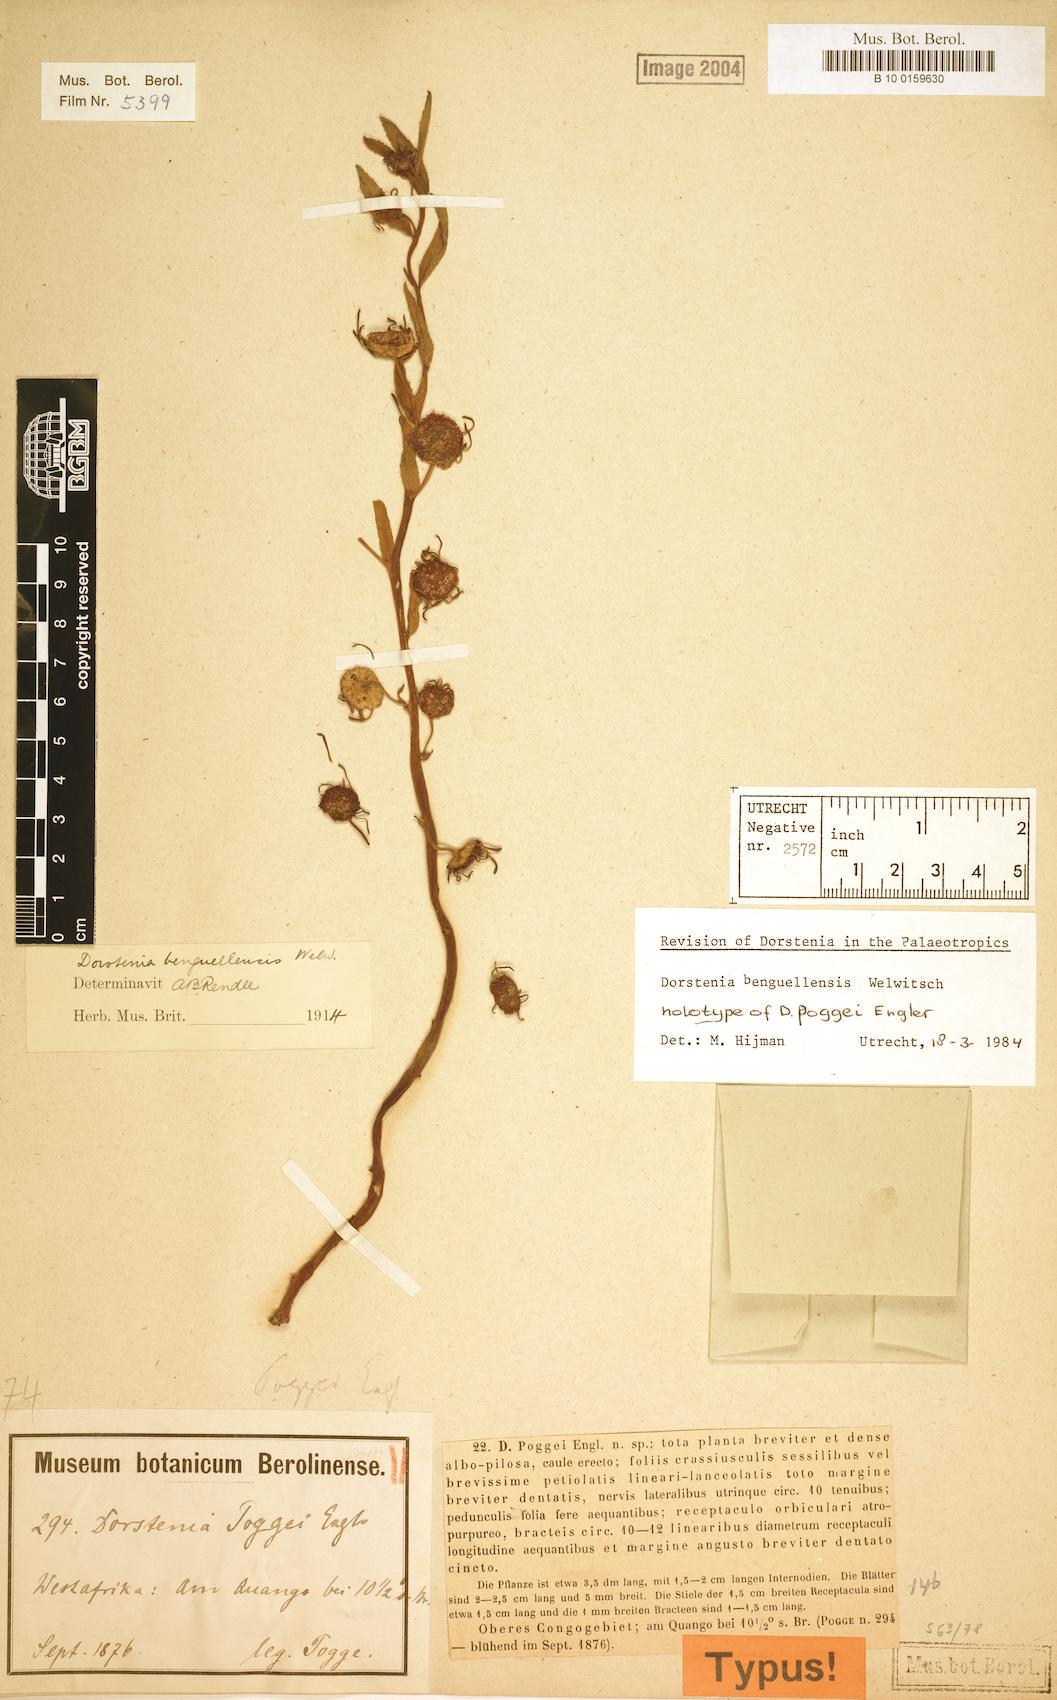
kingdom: Plantae
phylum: Tracheophyta
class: Magnoliopsida
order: Rosales
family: Moraceae
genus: Dorstenia
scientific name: Dorstenia benguellensis
